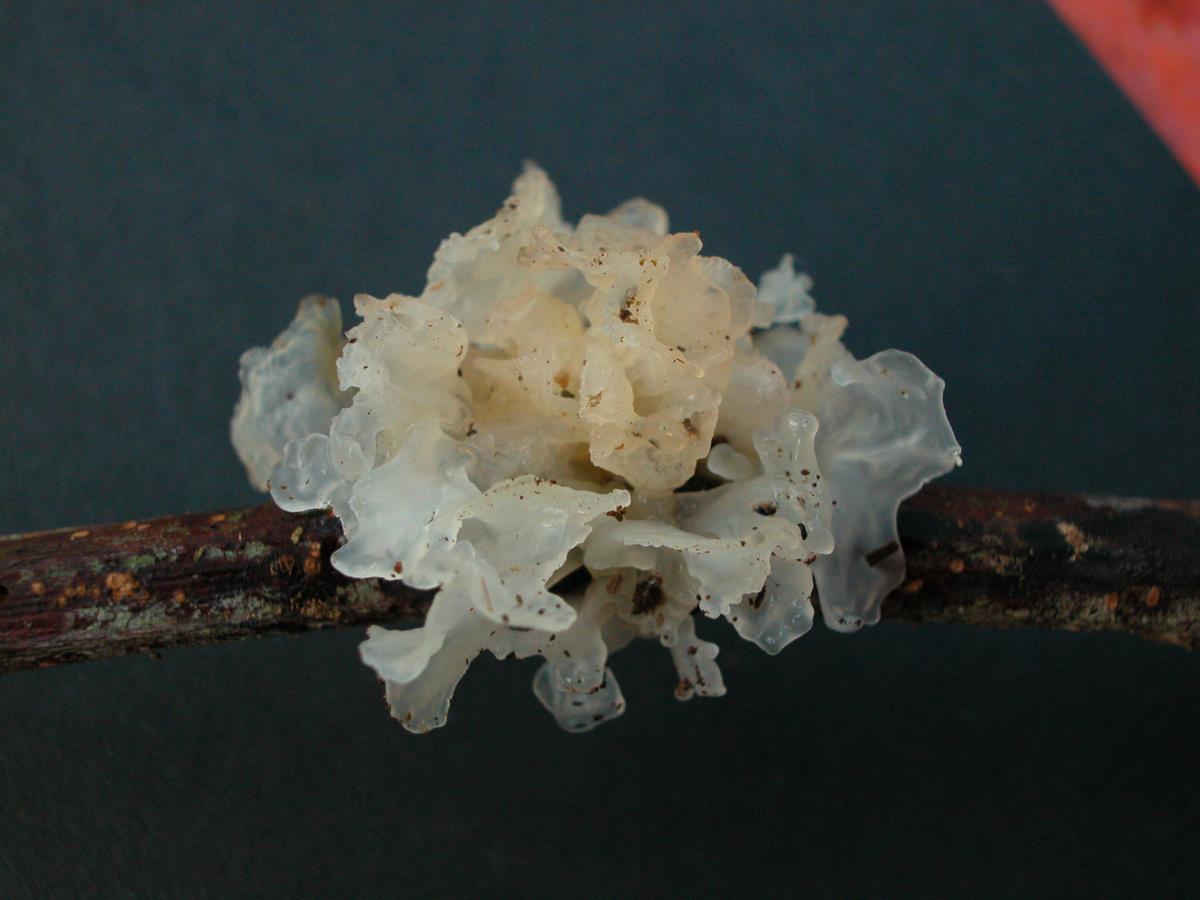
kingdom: Fungi
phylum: Basidiomycota
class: Tremellomycetes
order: Tremellales
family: Tremellaceae
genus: Tremella
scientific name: Tremella fuciformis
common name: Snow fungus
